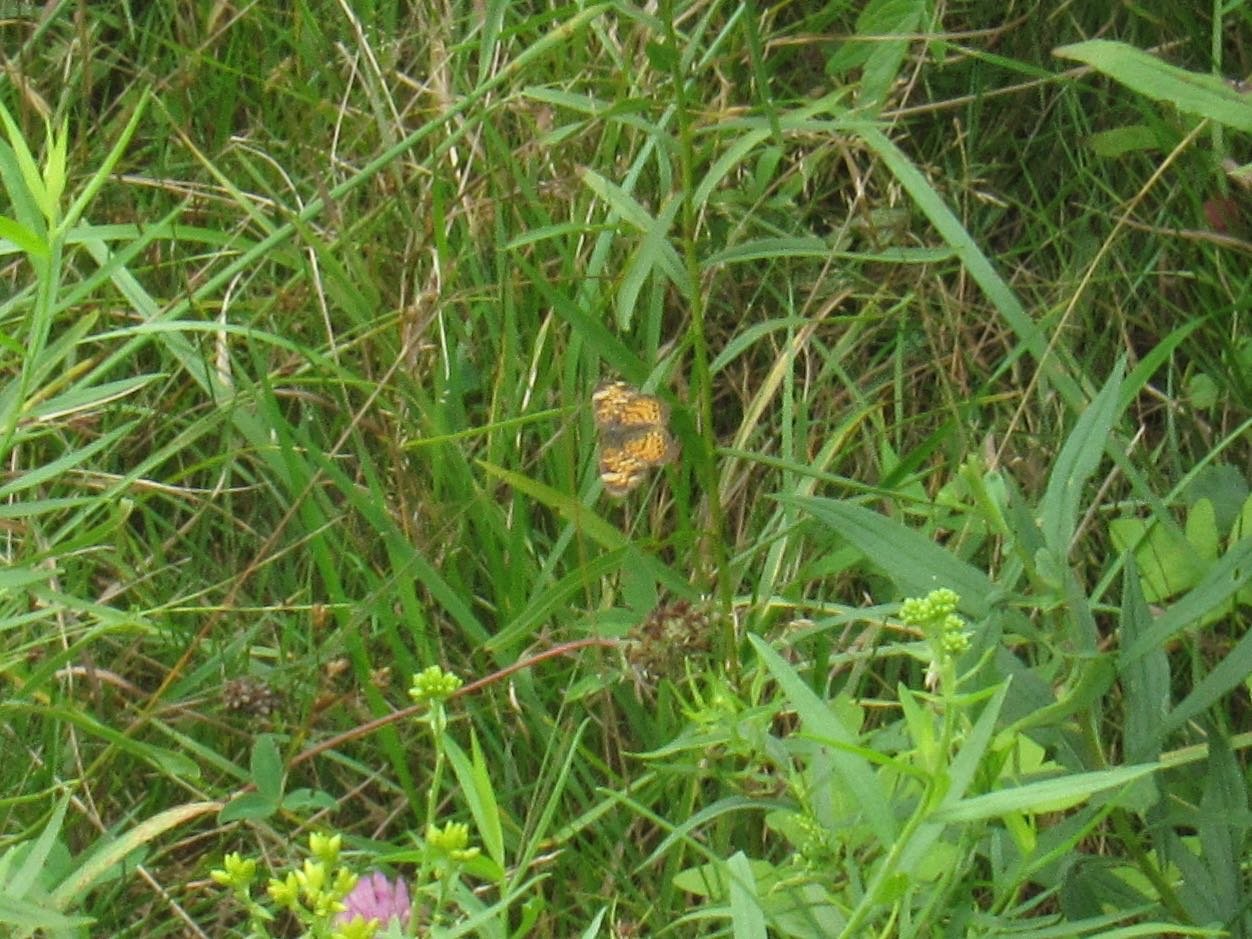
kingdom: Animalia
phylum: Arthropoda
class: Insecta
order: Lepidoptera
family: Nymphalidae
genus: Phyciodes
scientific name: Phyciodes tharos
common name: Pearl Crescent
